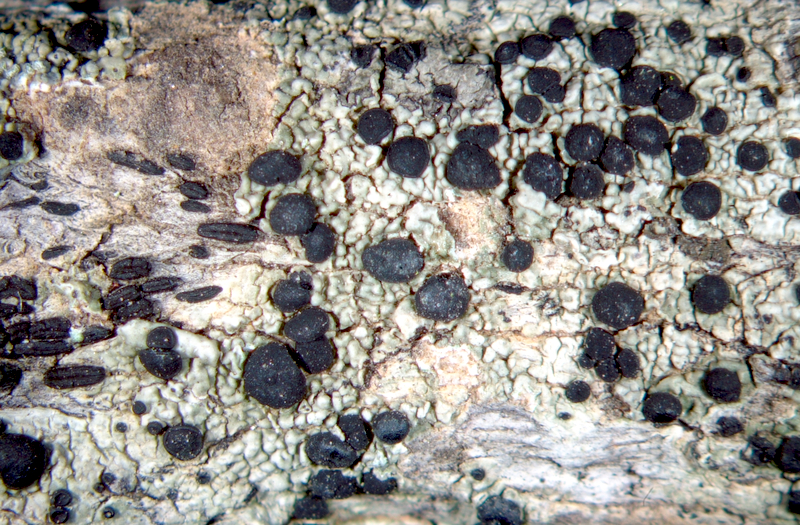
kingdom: Fungi
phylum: Ascomycota
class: Arthoniomycetes
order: Arthoniales
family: Arthoniaceae
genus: Arthothelium
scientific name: Arthothelium orbilliferum
